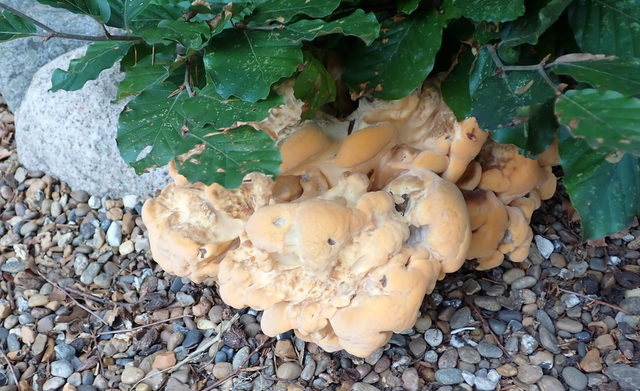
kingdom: Fungi
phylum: Basidiomycota
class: Agaricomycetes
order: Polyporales
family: Meripilaceae
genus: Meripilus
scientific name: Meripilus giganteus
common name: kæmpeporesvamp
